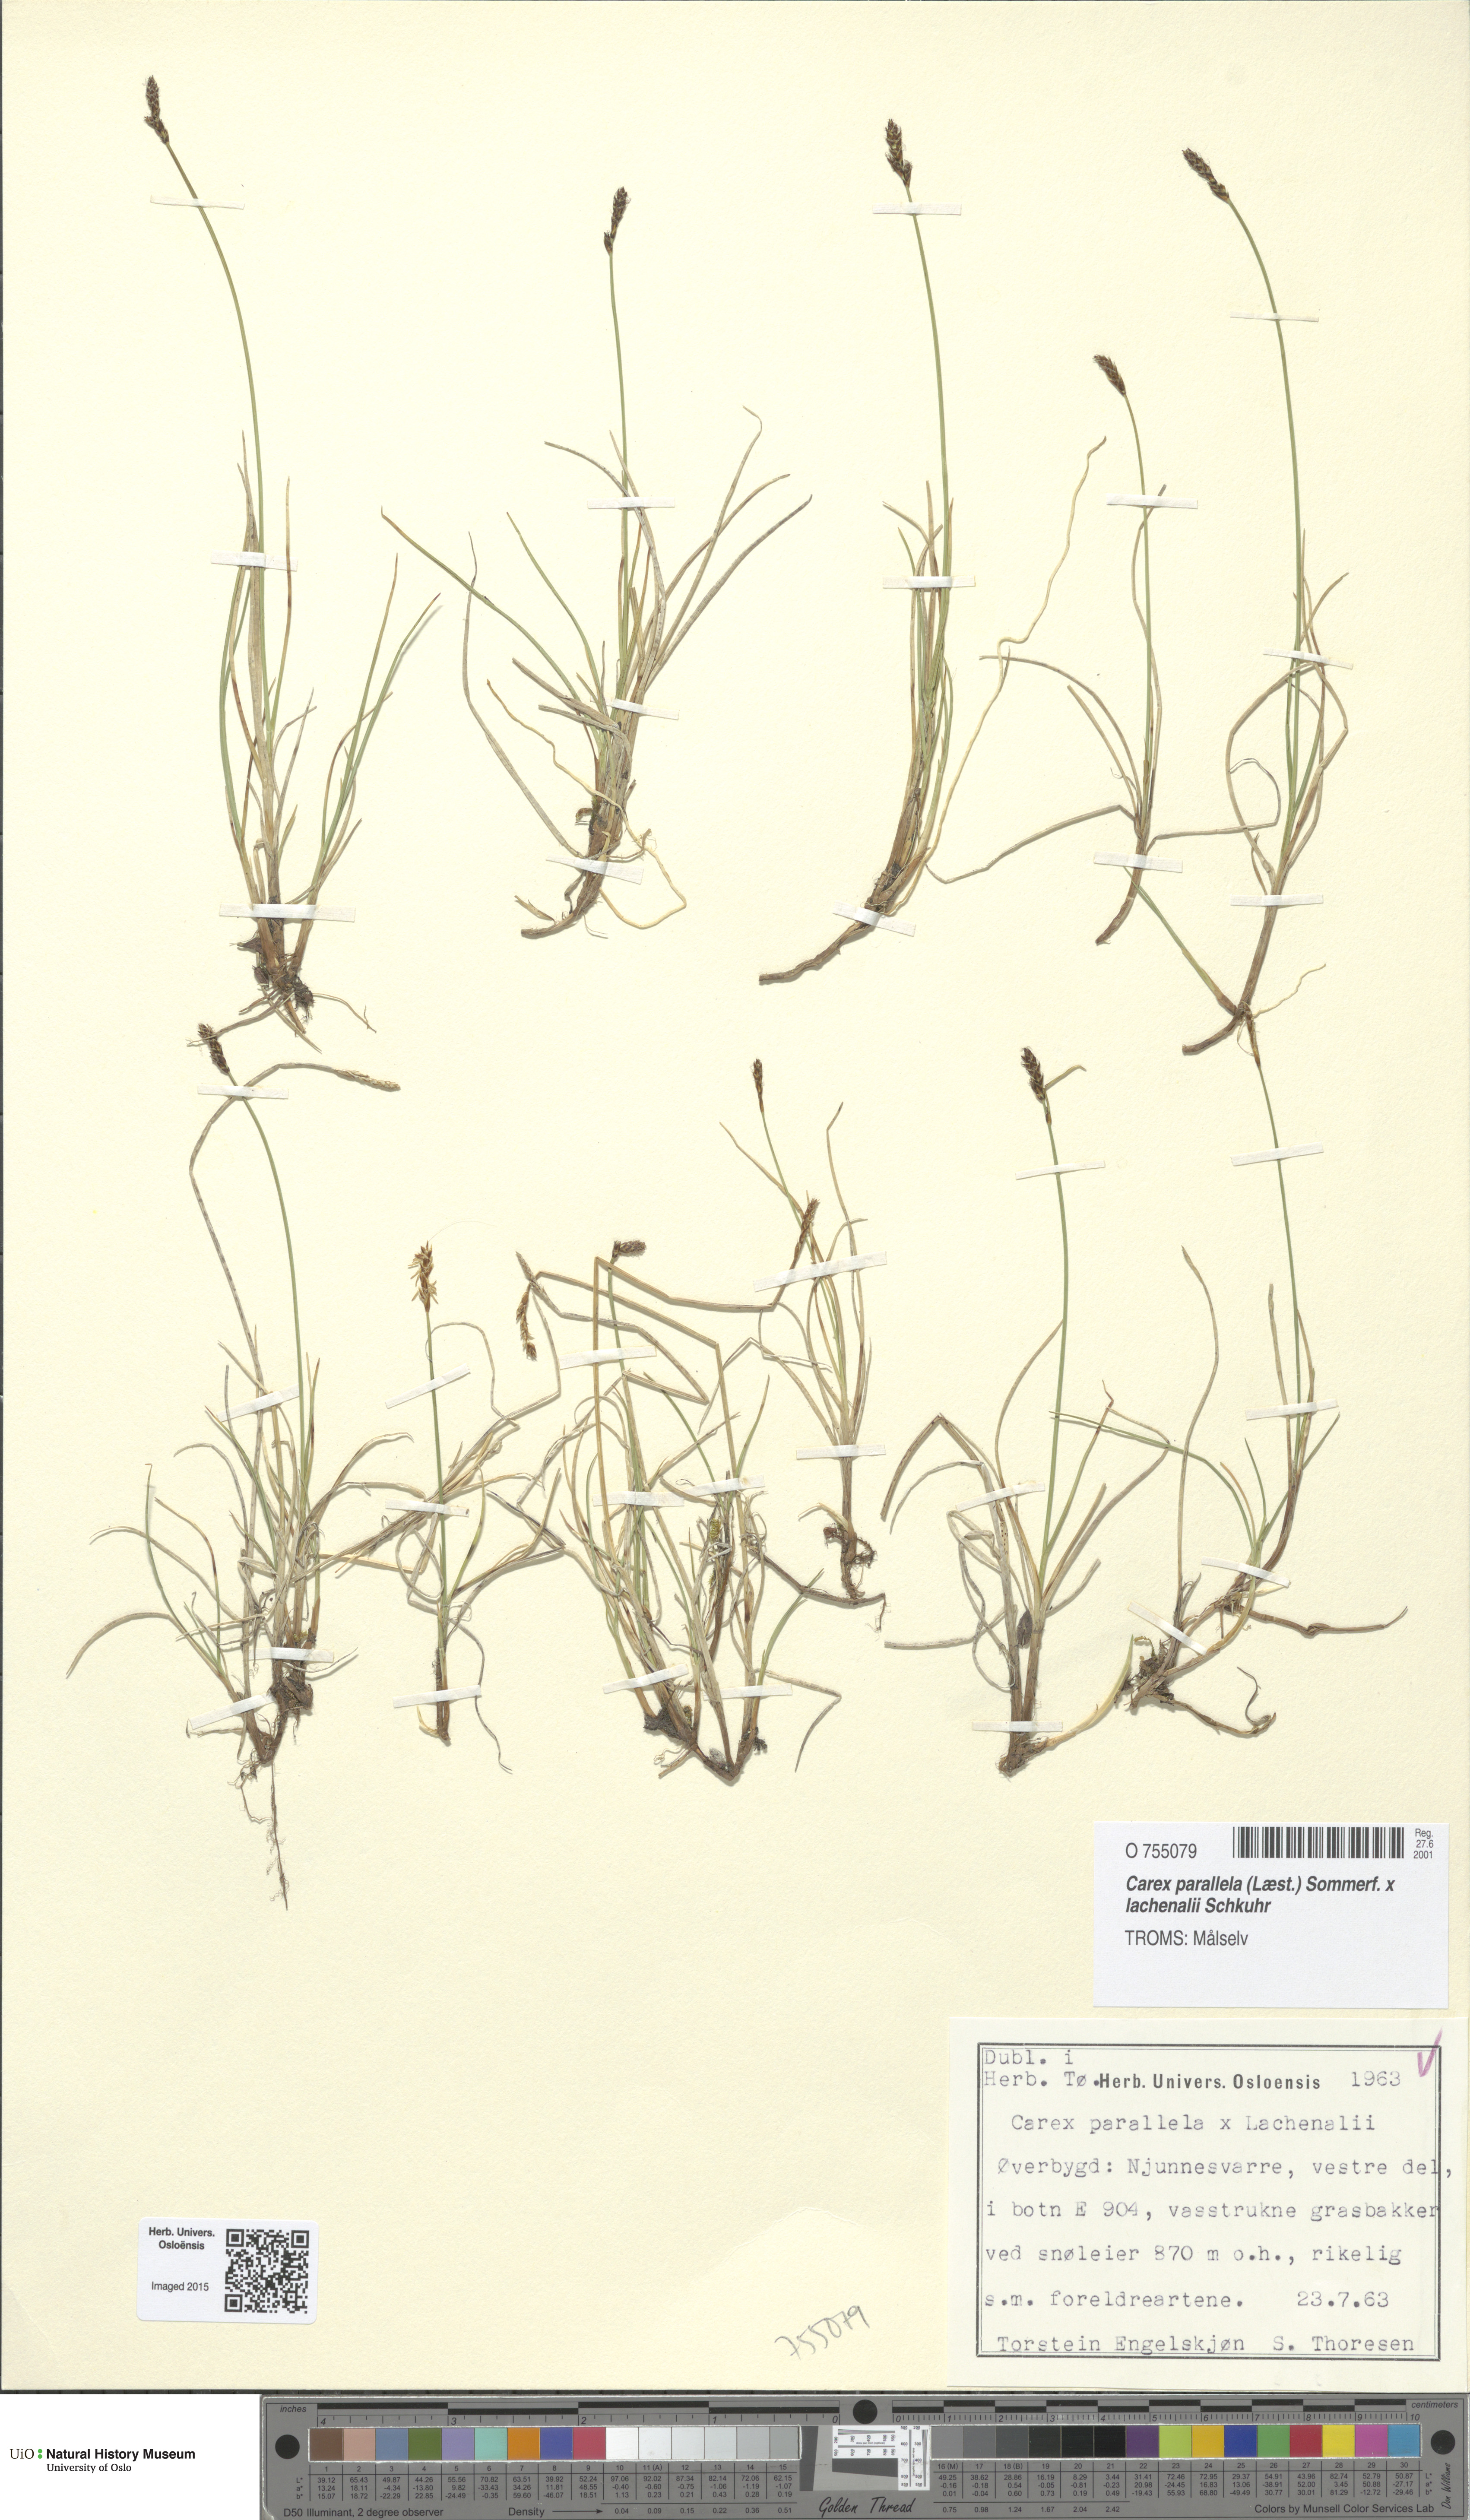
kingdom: Plantae
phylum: Tracheophyta
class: Liliopsida
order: Poales
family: Cyperaceae
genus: Carex
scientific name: Carex
